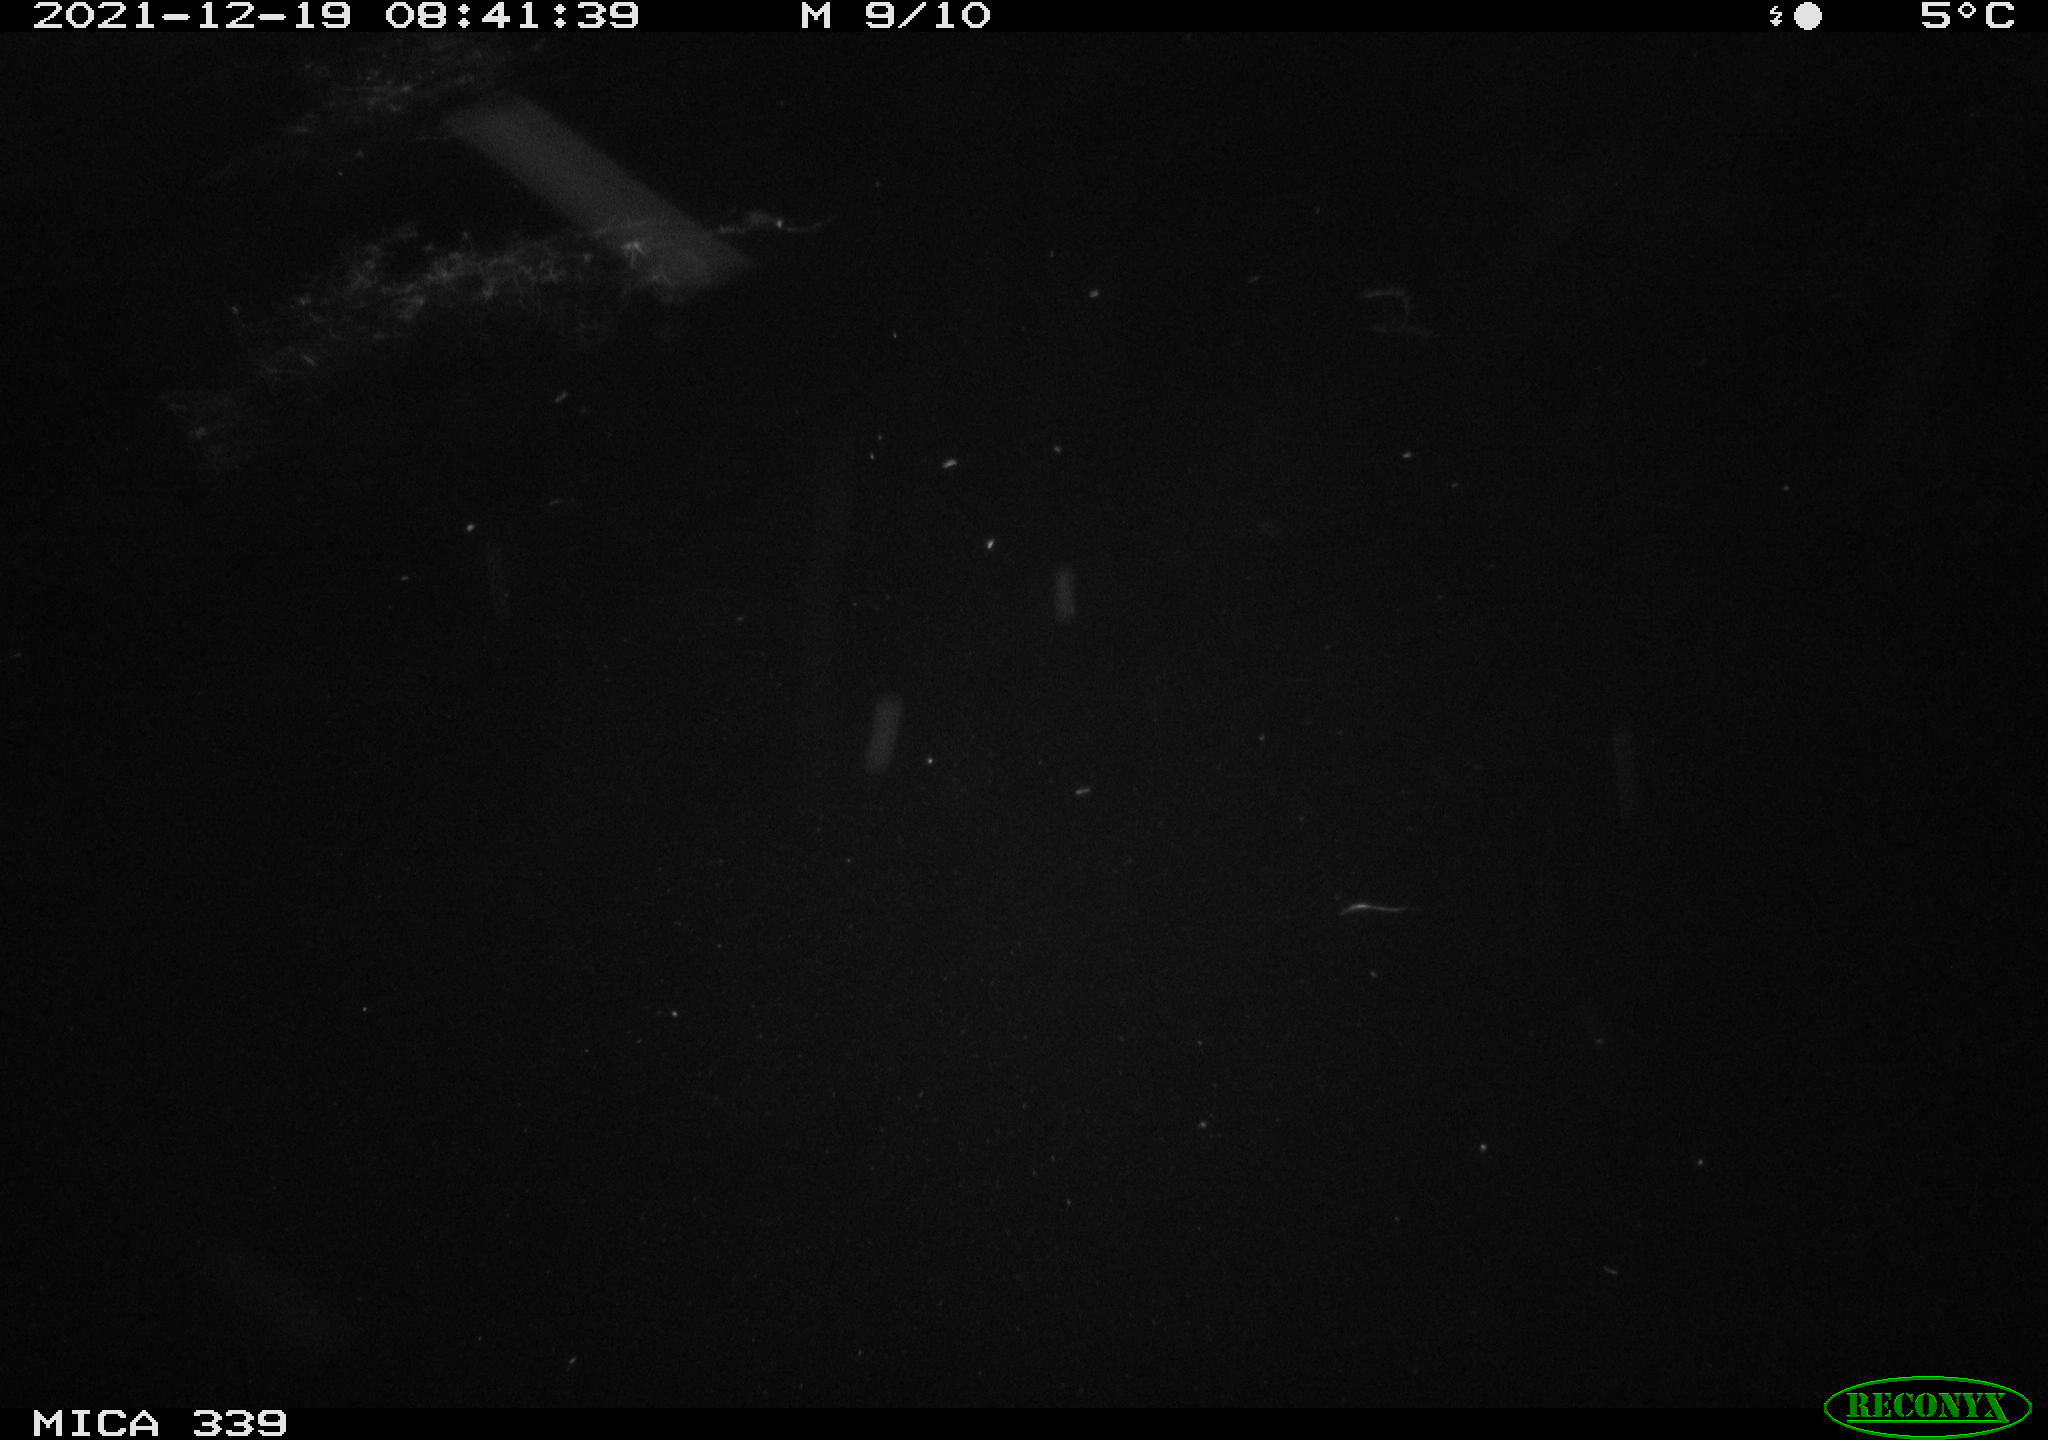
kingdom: Animalia
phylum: Chordata
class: Aves
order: Gruiformes
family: Rallidae
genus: Gallinula
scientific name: Gallinula chloropus
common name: Common moorhen
